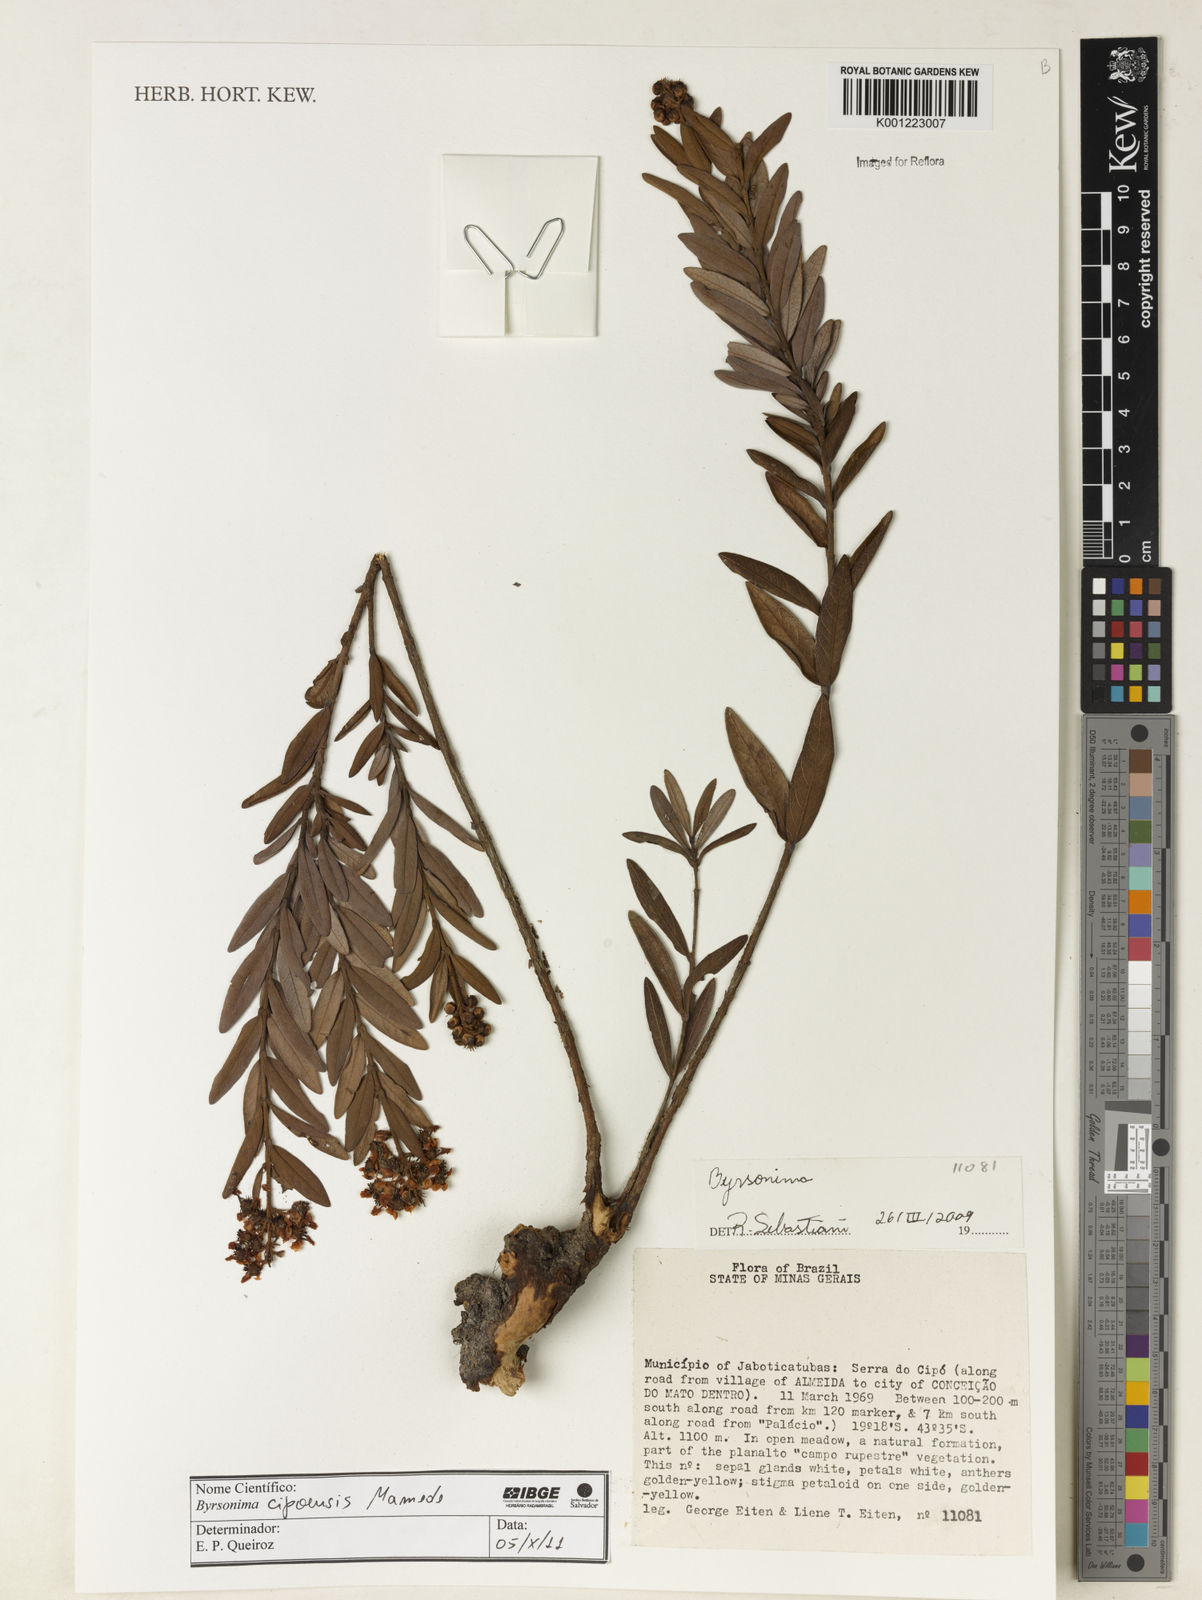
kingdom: Plantae
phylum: Tracheophyta
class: Magnoliopsida
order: Malpighiales
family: Malpighiaceae
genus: Byrsonima
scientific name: Byrsonima cipoensis
